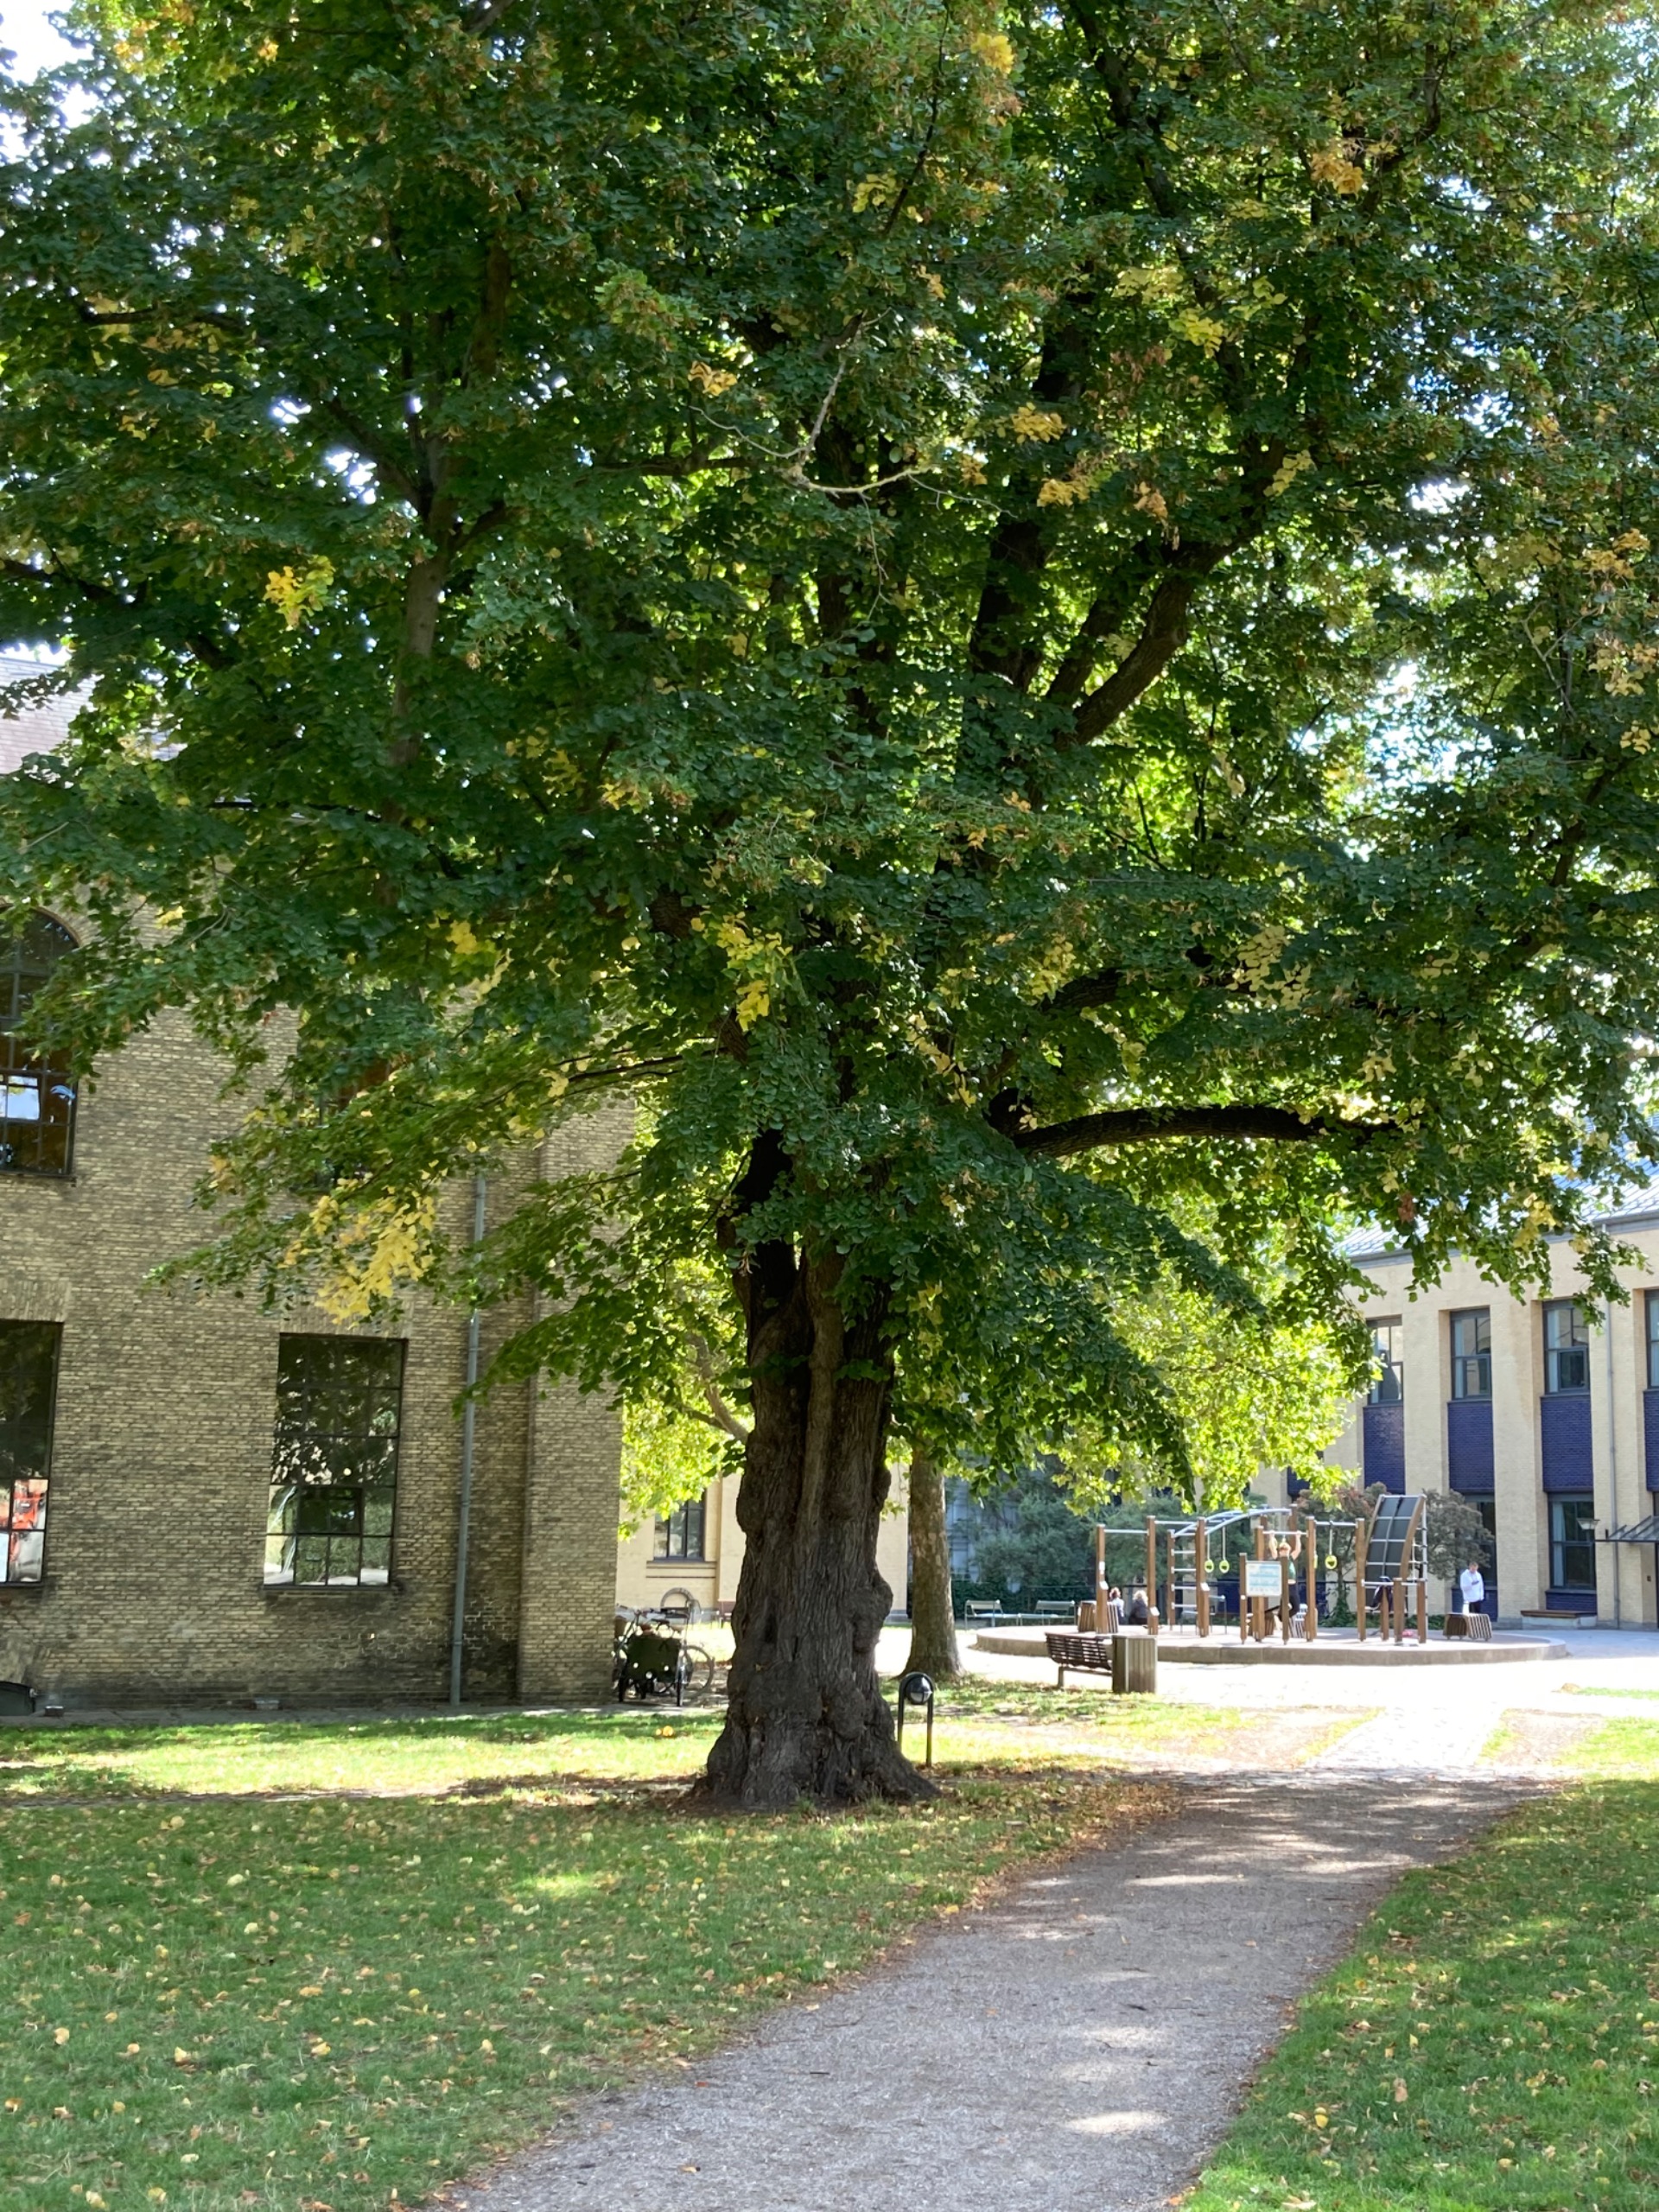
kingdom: Plantae
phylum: Tracheophyta
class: Magnoliopsida
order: Malvales
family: Malvaceae
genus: Tilia
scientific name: Tilia
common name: Lindeslægten
